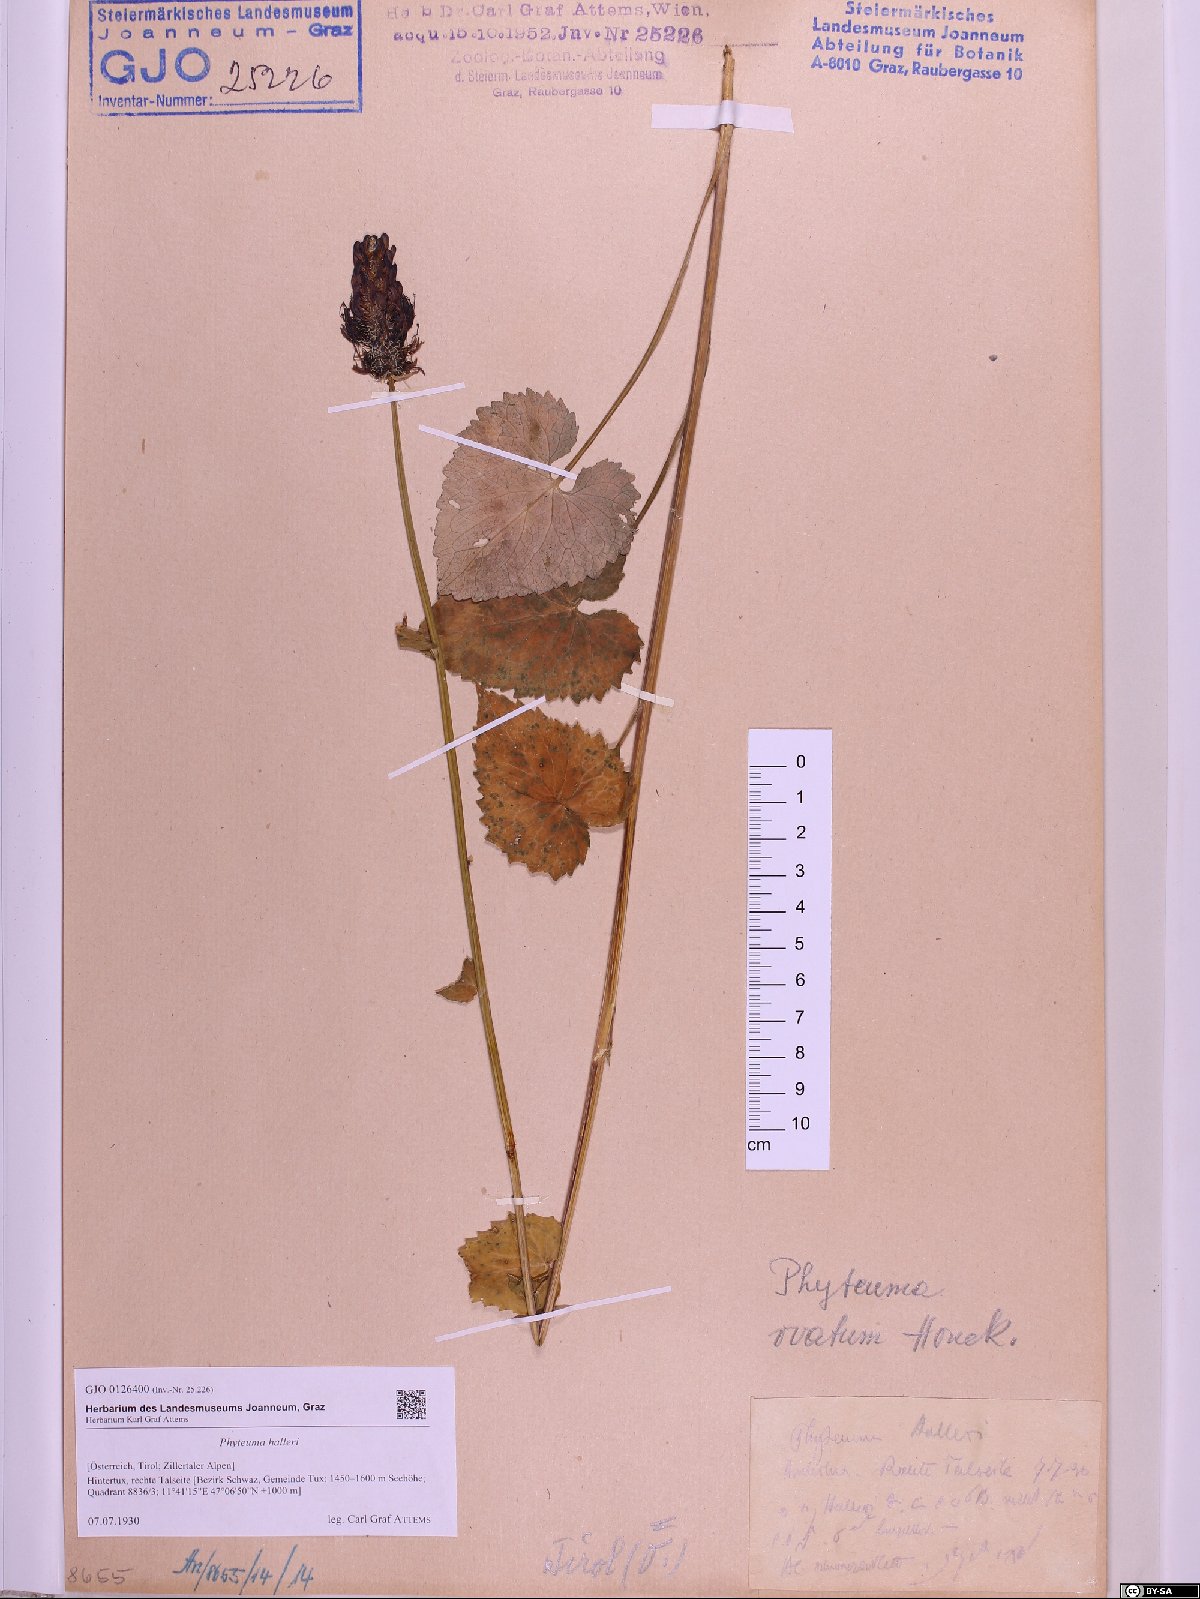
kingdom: Plantae
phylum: Tracheophyta
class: Magnoliopsida
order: Asterales
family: Campanulaceae
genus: Phyteuma
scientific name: Phyteuma ovatum
